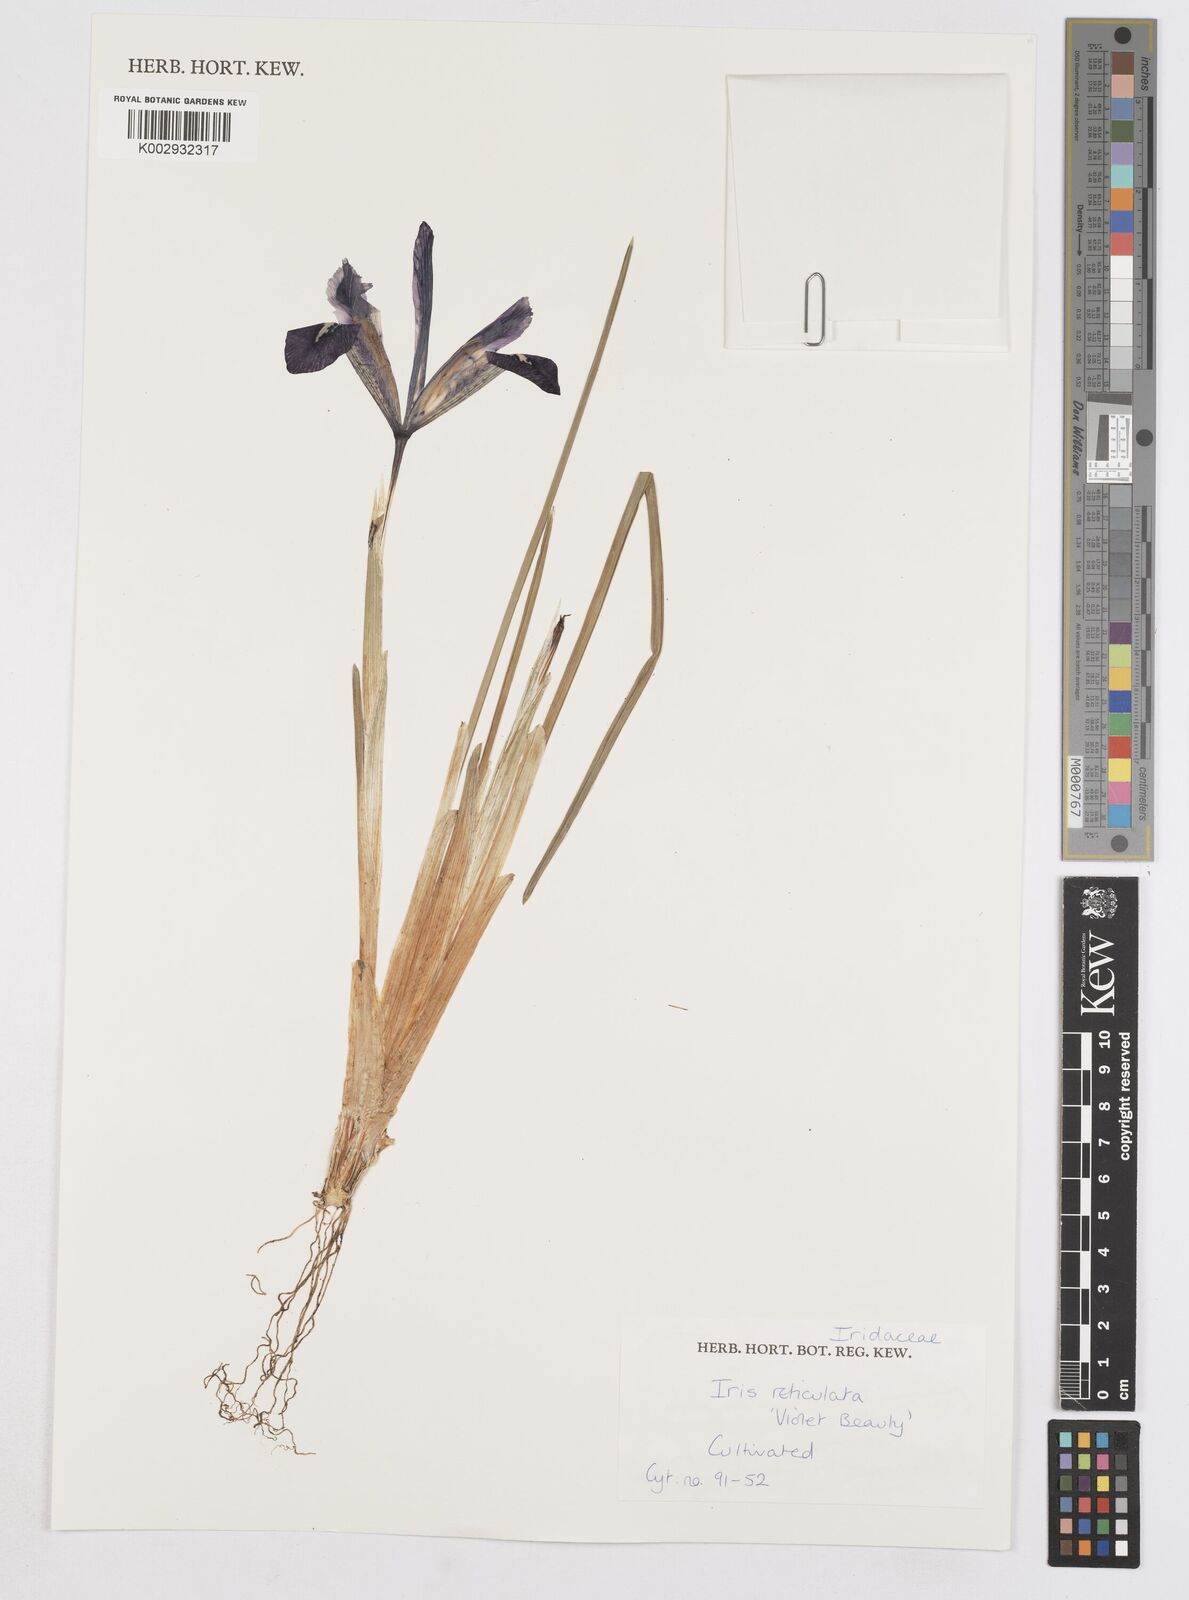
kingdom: Plantae
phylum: Tracheophyta
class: Liliopsida
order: Asparagales
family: Iridaceae
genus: Iris
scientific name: Iris reticulata
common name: Netted iris
